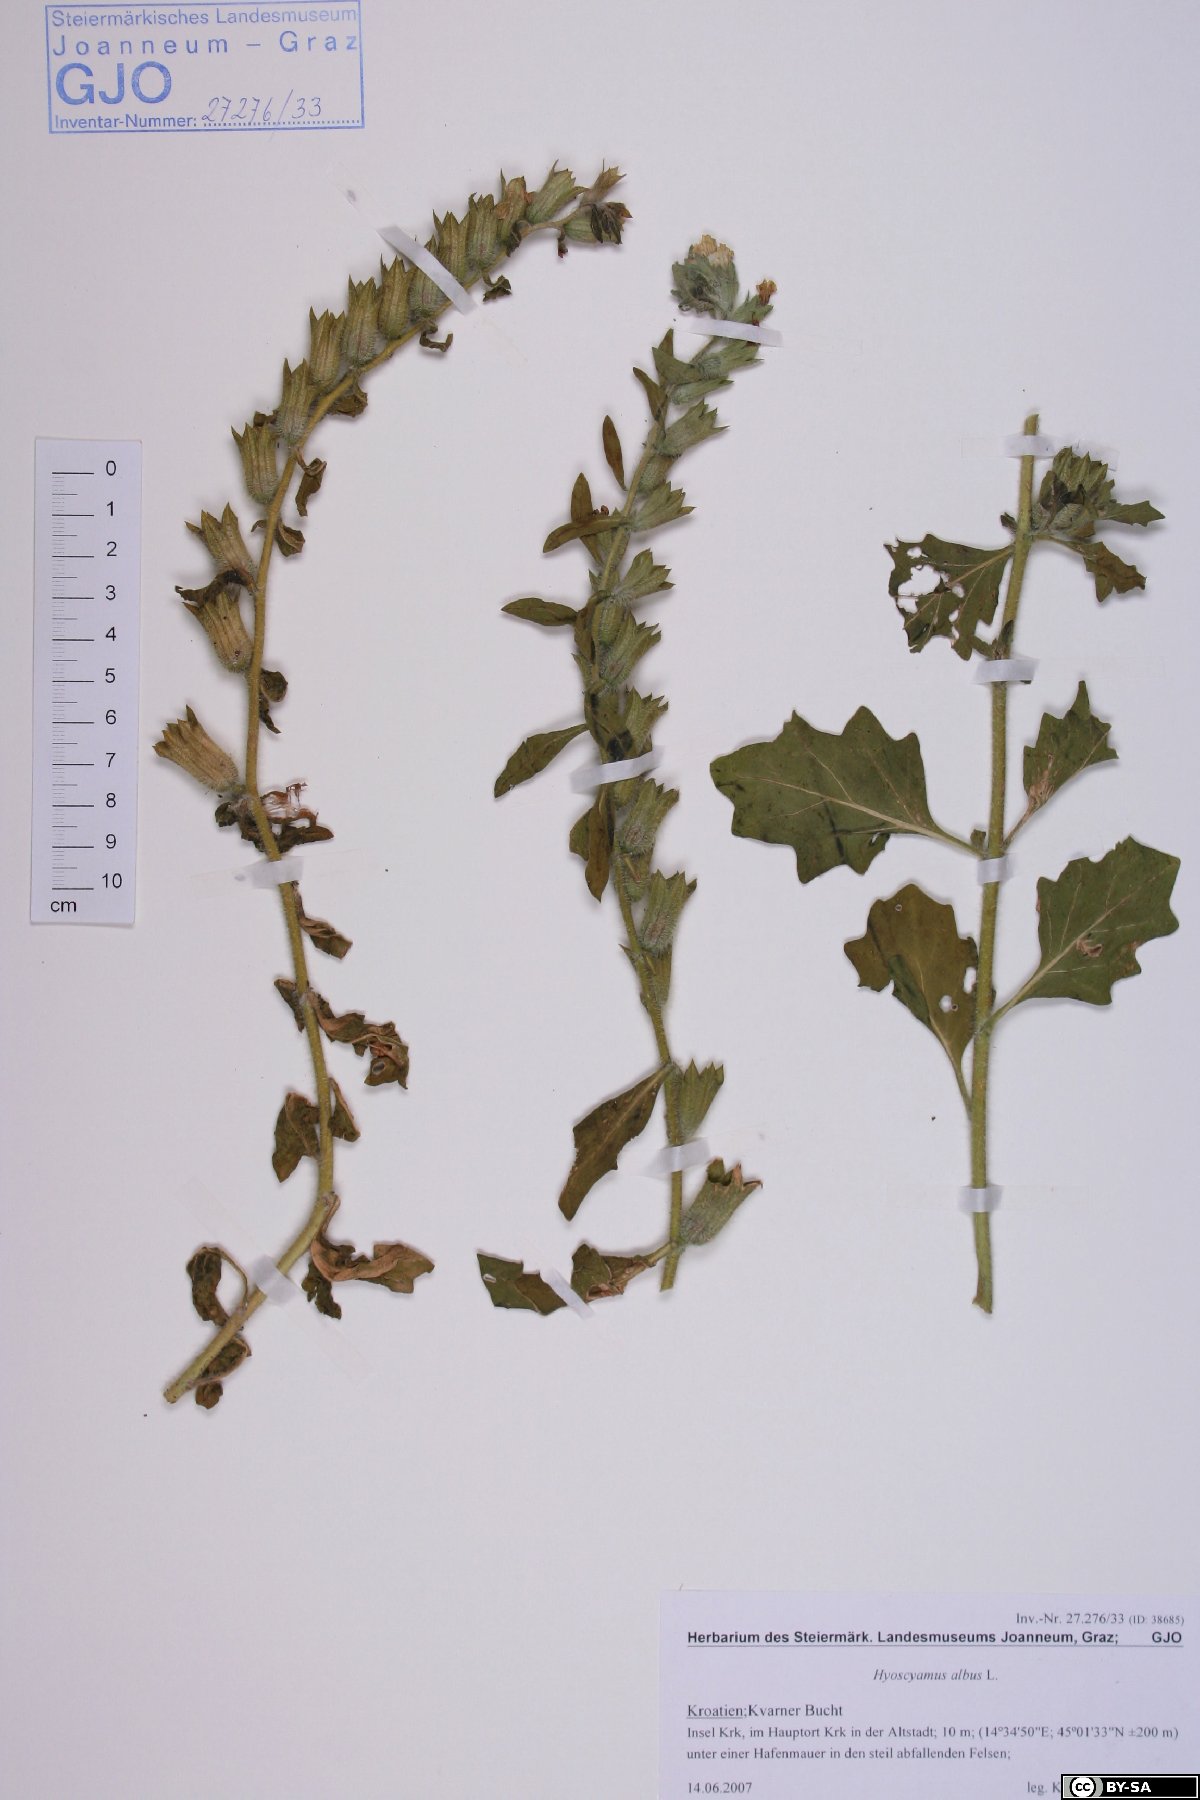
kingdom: Plantae
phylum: Tracheophyta
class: Magnoliopsida
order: Solanales
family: Solanaceae
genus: Hyoscyamus
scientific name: Hyoscyamus albus
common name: White henbane
